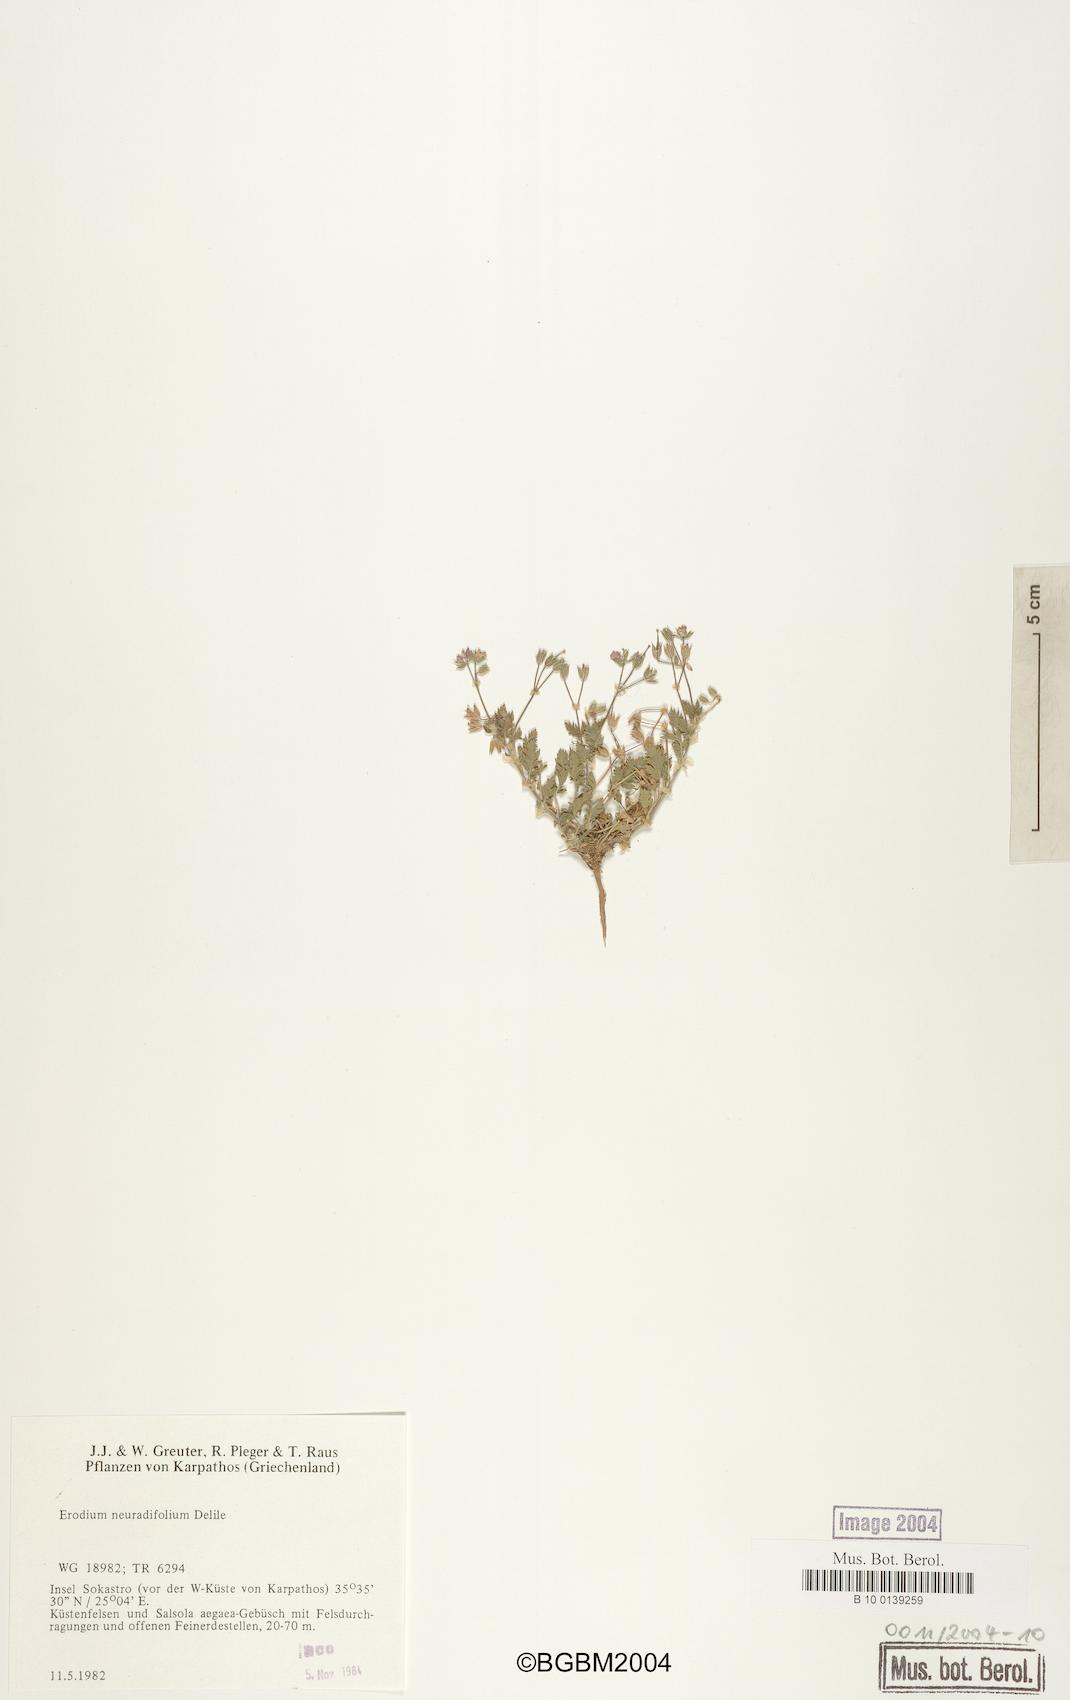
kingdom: Plantae
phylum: Tracheophyta
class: Magnoliopsida
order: Geraniales
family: Geraniaceae
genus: Erodium
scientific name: Erodium malacoides
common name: Soft stork's-bill
